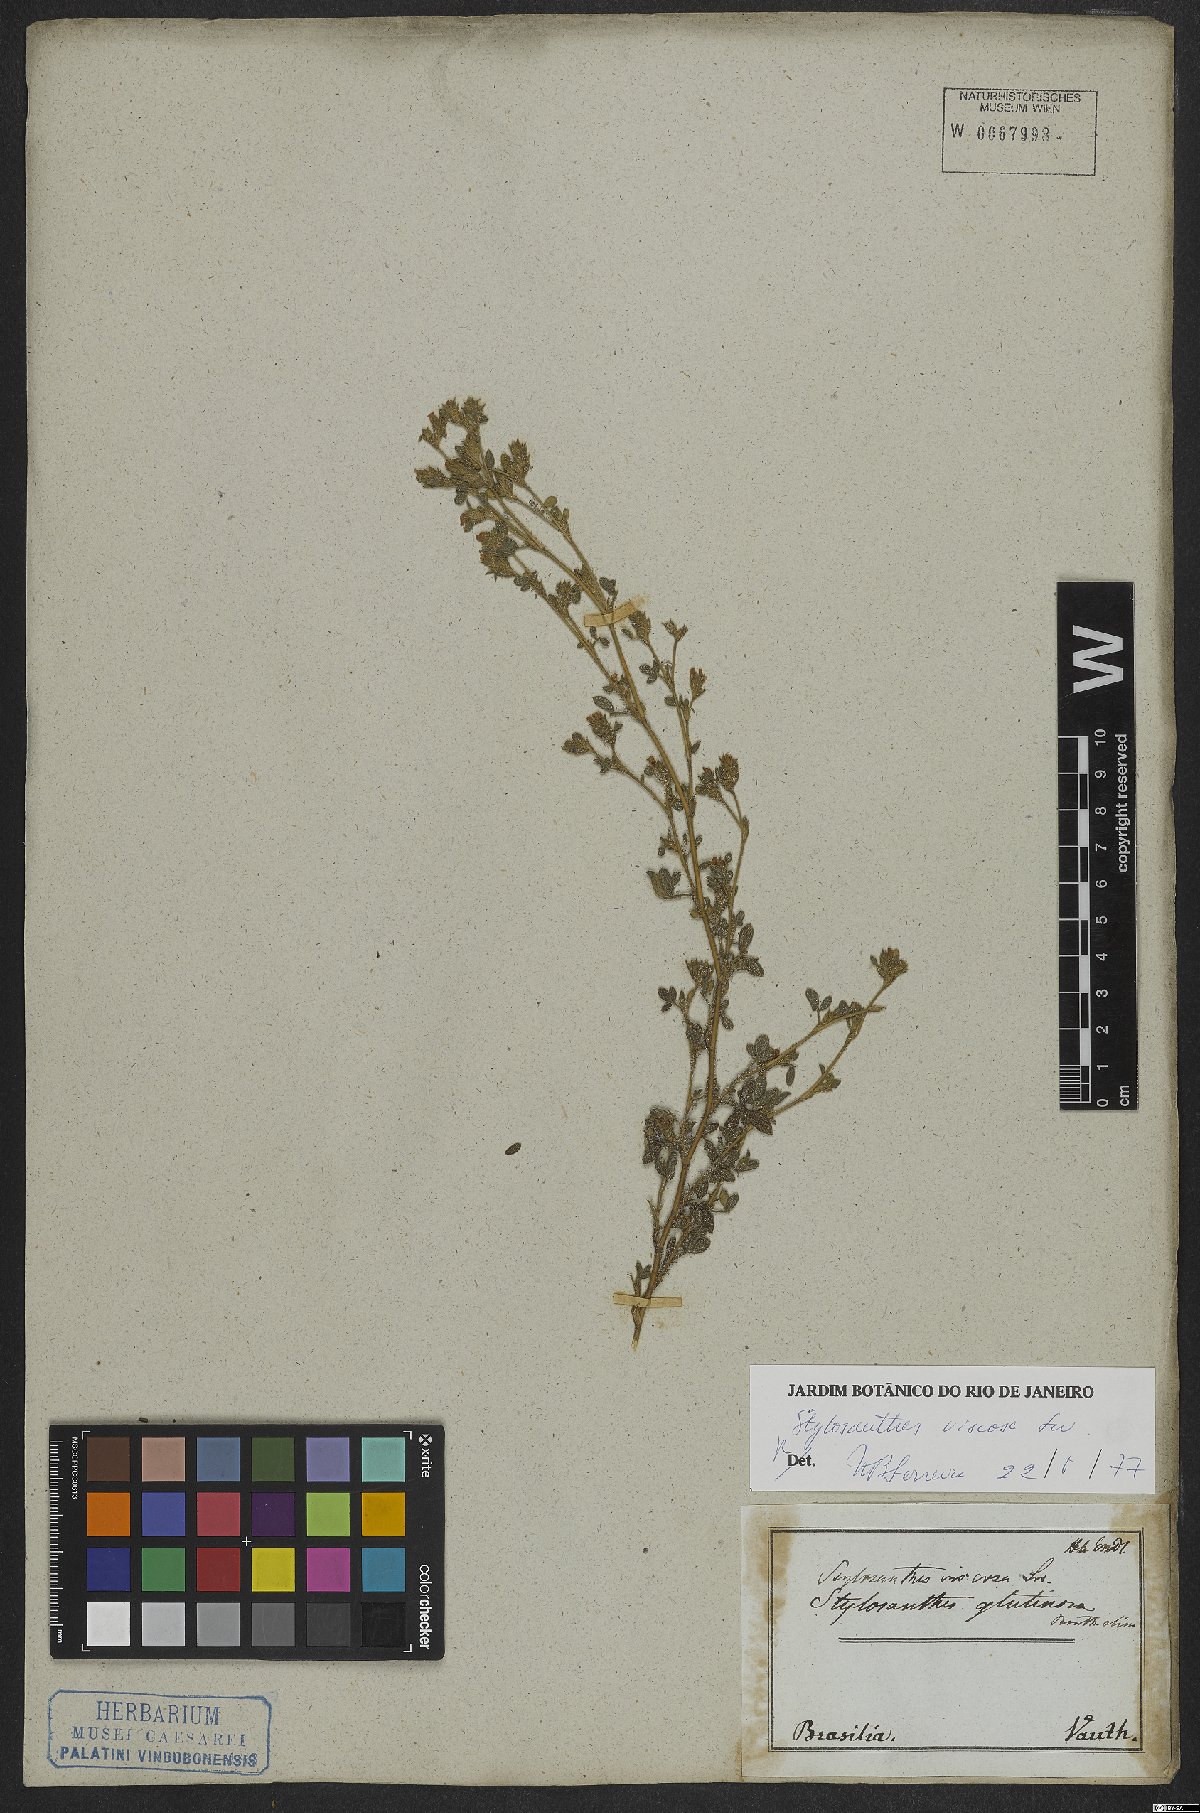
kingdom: Plantae
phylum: Tracheophyta
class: Magnoliopsida
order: Fabales
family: Fabaceae
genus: Stylosanthes
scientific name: Stylosanthes viscosa
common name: Viscid pencil-flower
